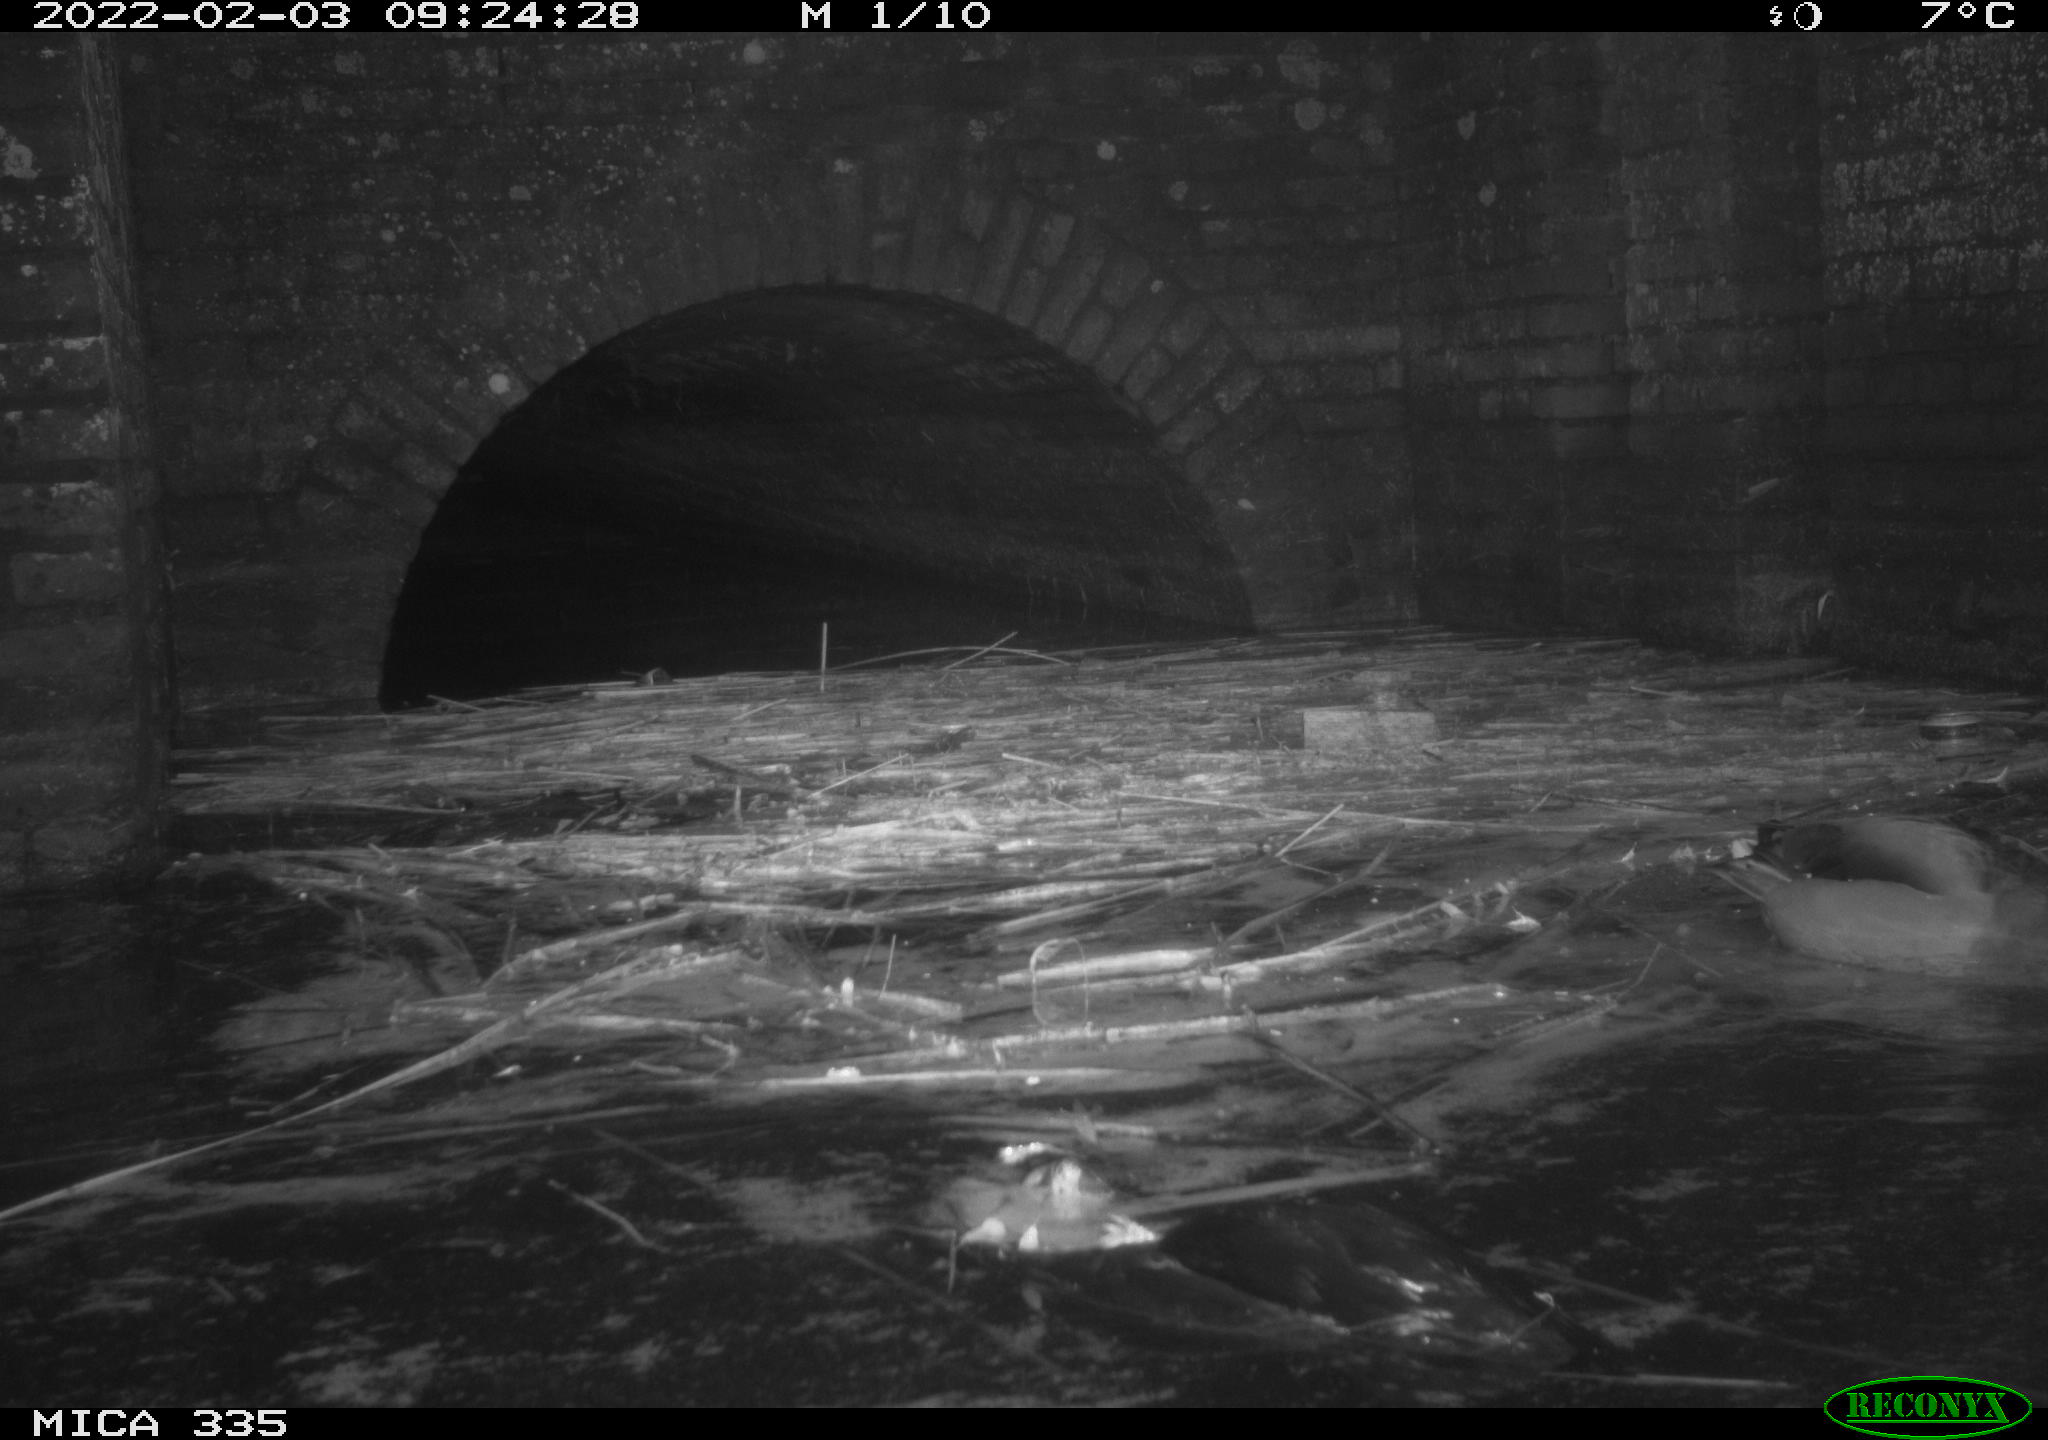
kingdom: Animalia
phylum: Chordata
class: Aves
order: Anseriformes
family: Anatidae
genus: Anas
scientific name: Anas platyrhynchos
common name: Mallard
